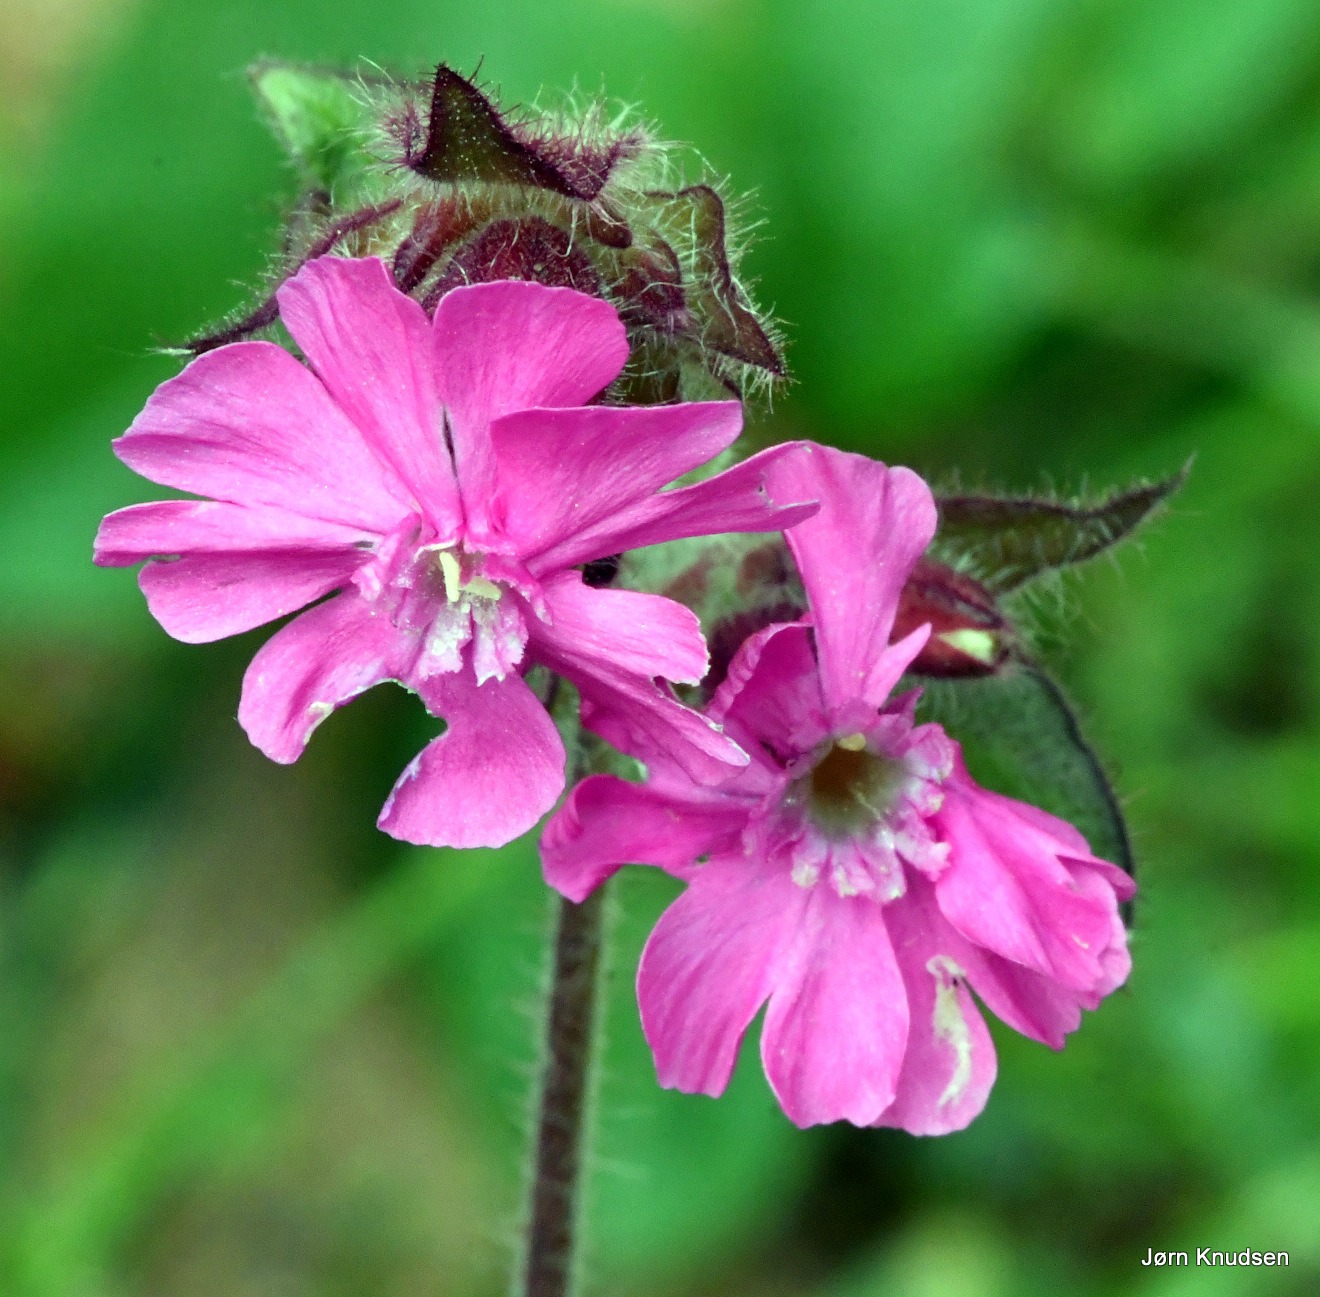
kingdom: Plantae
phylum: Tracheophyta
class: Magnoliopsida
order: Caryophyllales
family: Caryophyllaceae
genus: Silene
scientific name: Silene dioica
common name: Dagpragtstjerne
